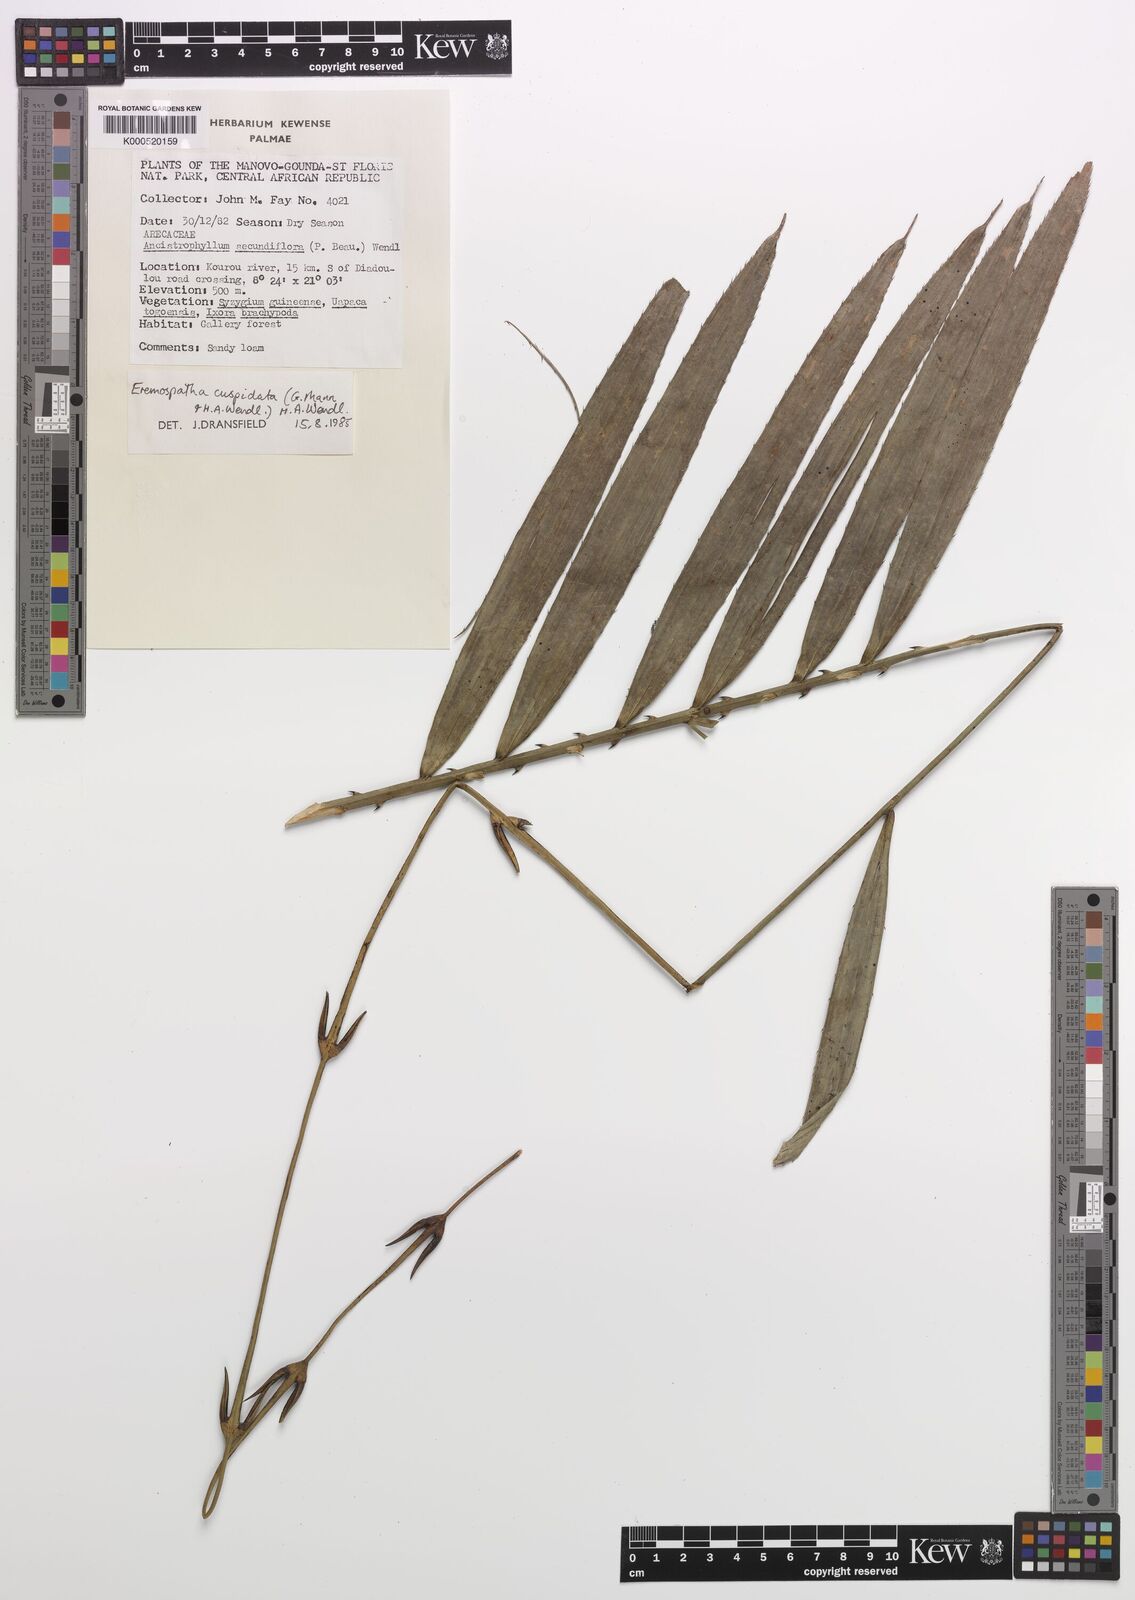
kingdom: Plantae
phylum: Tracheophyta
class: Liliopsida
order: Arecales
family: Arecaceae
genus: Eremospatha
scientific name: Eremospatha cuspidata
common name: Rattan
